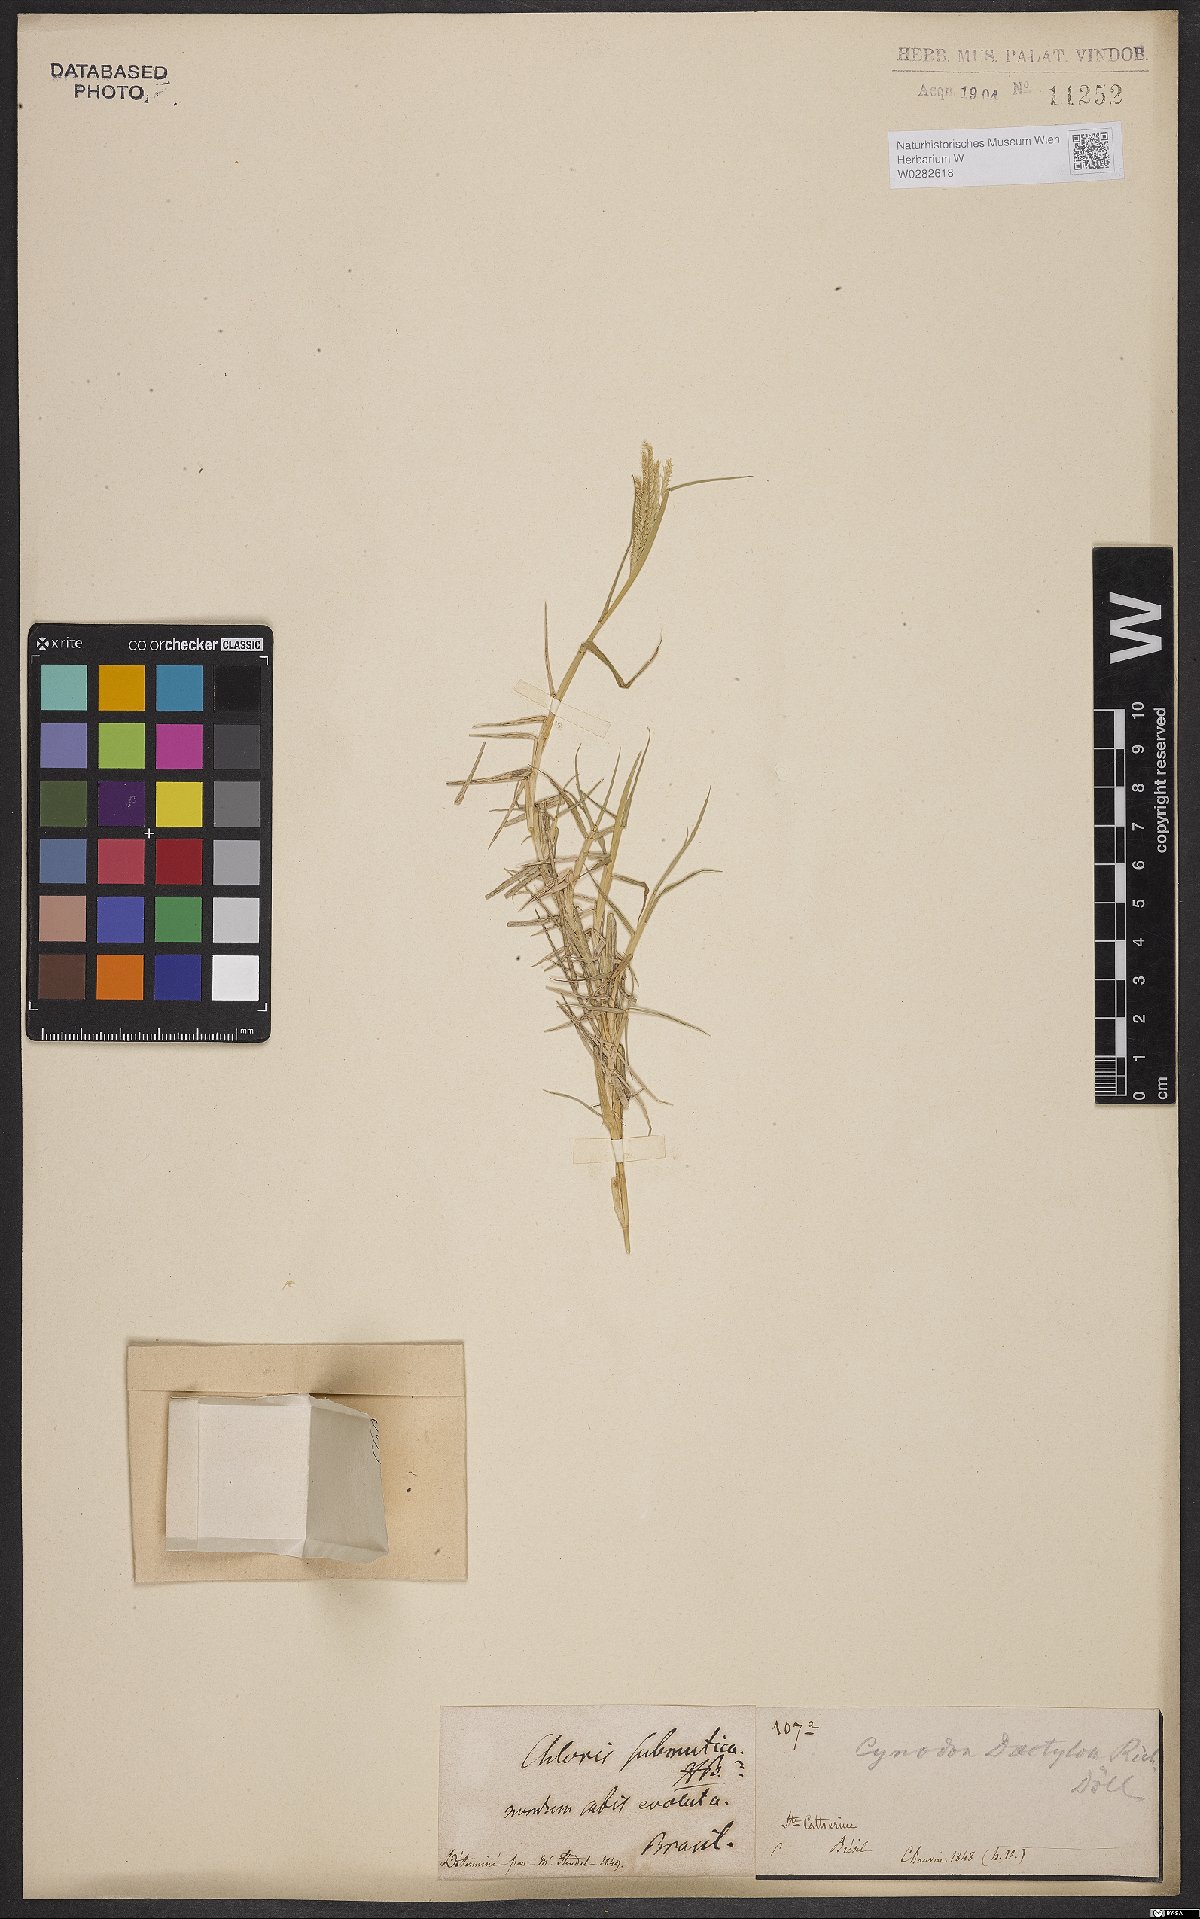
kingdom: Plantae
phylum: Tracheophyta
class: Liliopsida
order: Poales
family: Poaceae
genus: Cynodon
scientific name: Cynodon dactylon
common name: Bermuda grass
